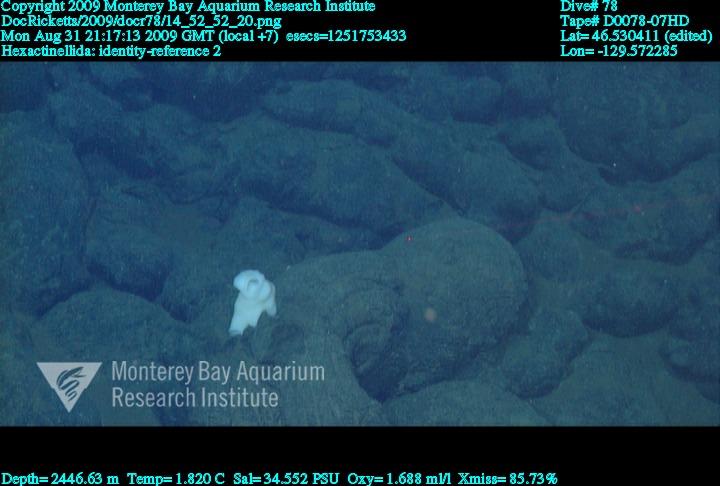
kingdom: Animalia
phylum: Porifera
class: Hexactinellida
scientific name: Hexactinellida
